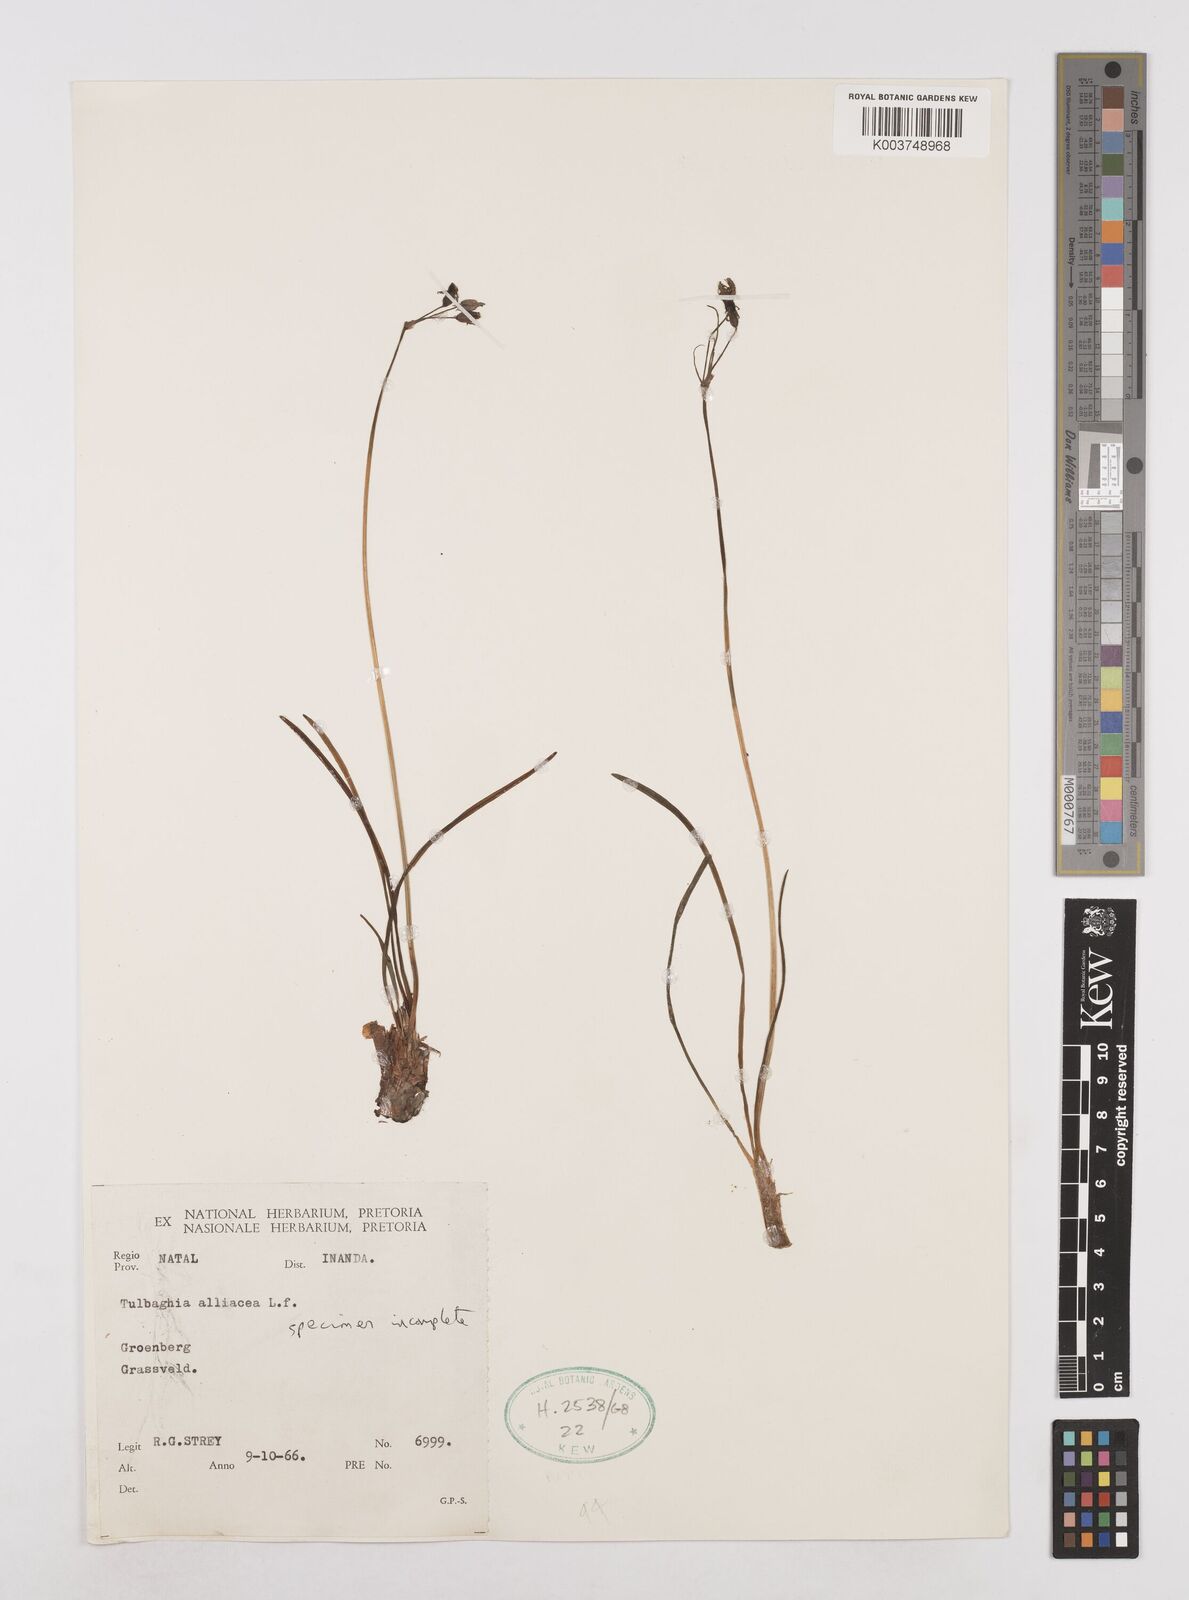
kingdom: Plantae
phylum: Tracheophyta
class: Liliopsida
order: Asparagales
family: Amaryllidaceae
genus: Tulbaghia
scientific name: Tulbaghia alliacea
